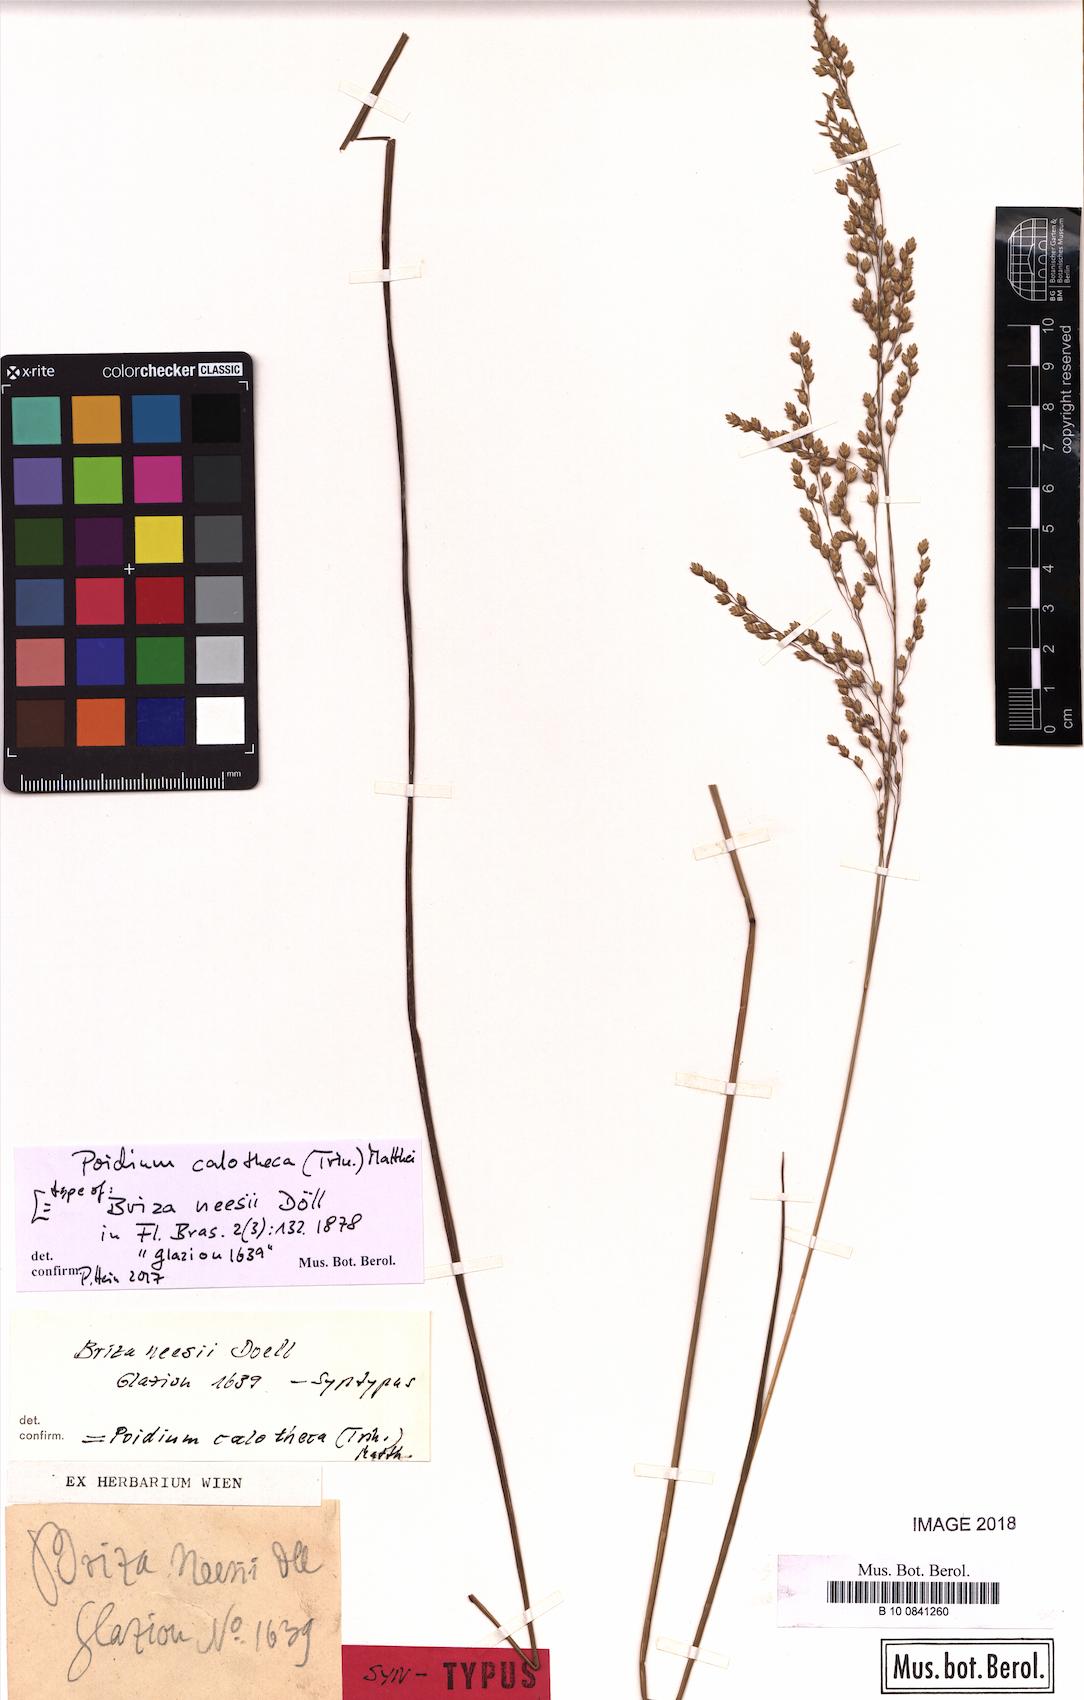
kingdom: Plantae
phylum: Tracheophyta
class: Liliopsida
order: Poales
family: Poaceae
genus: Poidium
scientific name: Poidium calotheca
